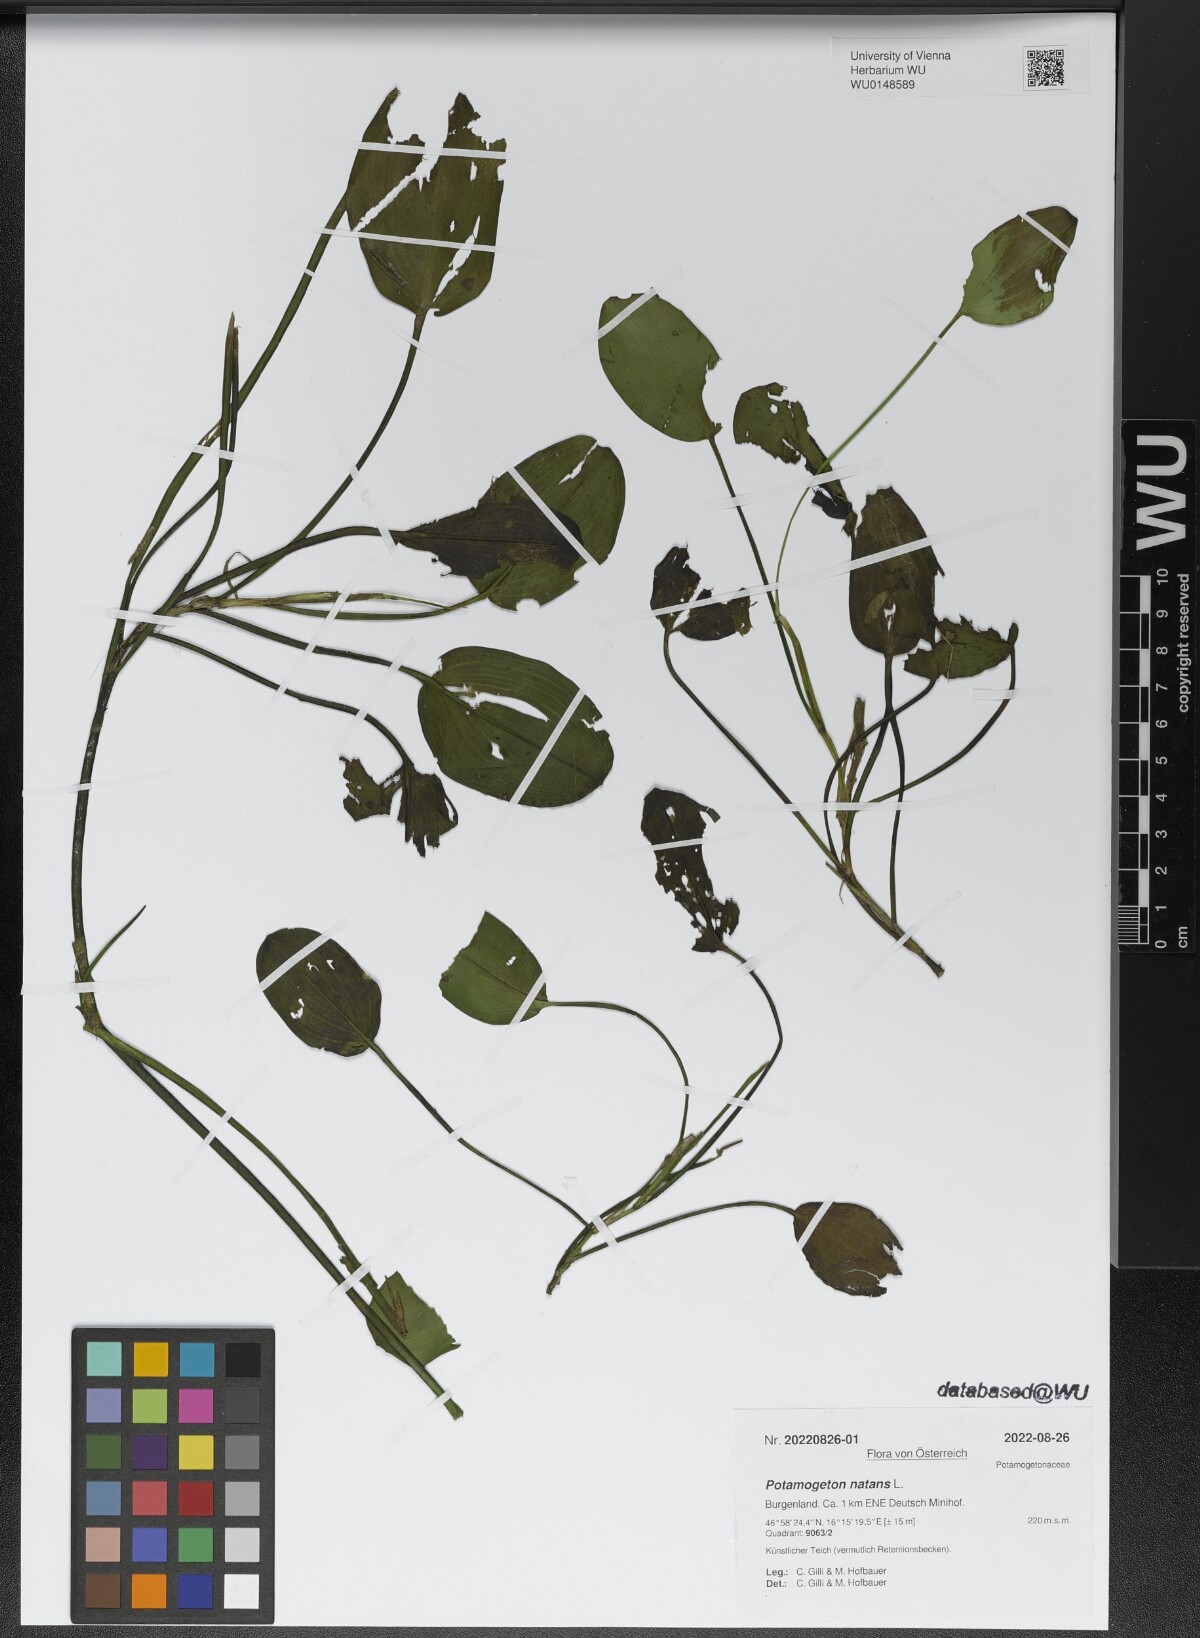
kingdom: Plantae
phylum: Tracheophyta
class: Liliopsida
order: Alismatales
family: Potamogetonaceae
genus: Potamogeton
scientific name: Potamogeton natans
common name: Broad-leaved pondweed
